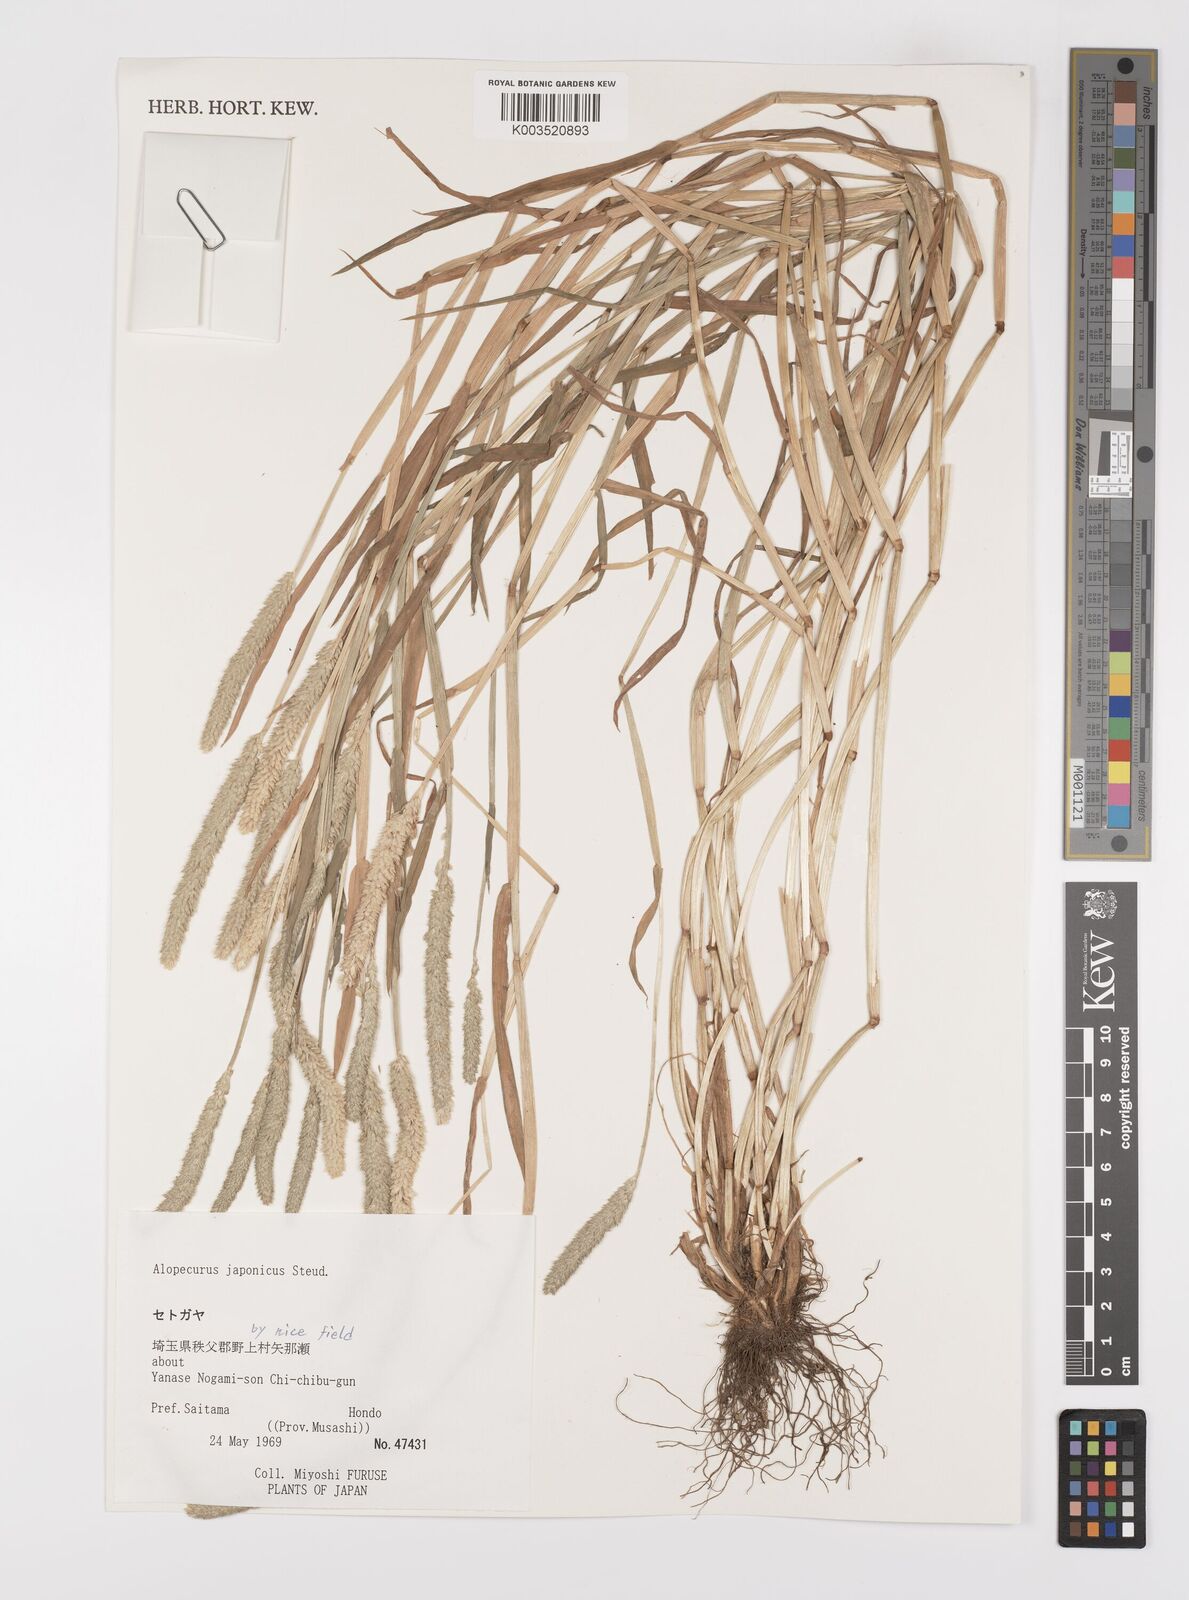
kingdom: Plantae
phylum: Tracheophyta
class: Liliopsida
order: Poales
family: Poaceae
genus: Alopecurus
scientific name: Alopecurus japonicus
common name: Japanese foxtail
